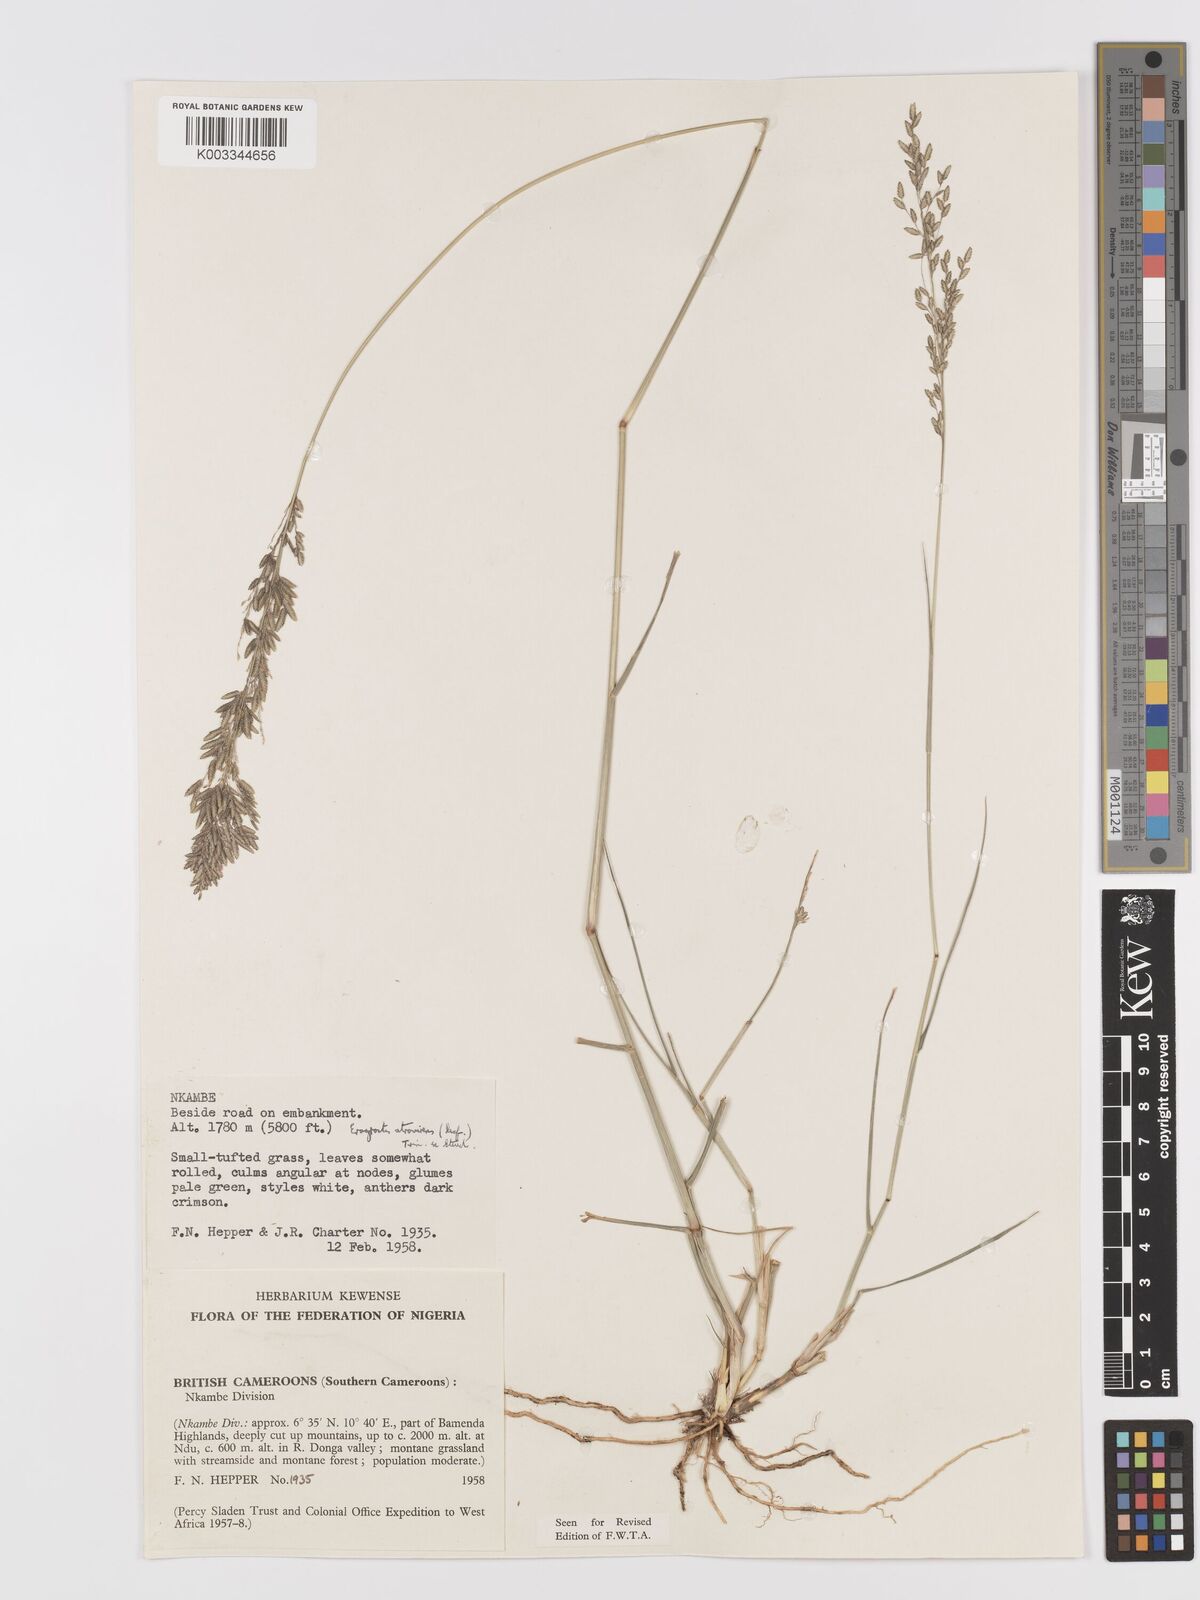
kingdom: Plantae
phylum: Tracheophyta
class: Liliopsida
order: Poales
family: Poaceae
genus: Eragrostis
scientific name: Eragrostis atrovirens
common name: Thalia lovegrass
